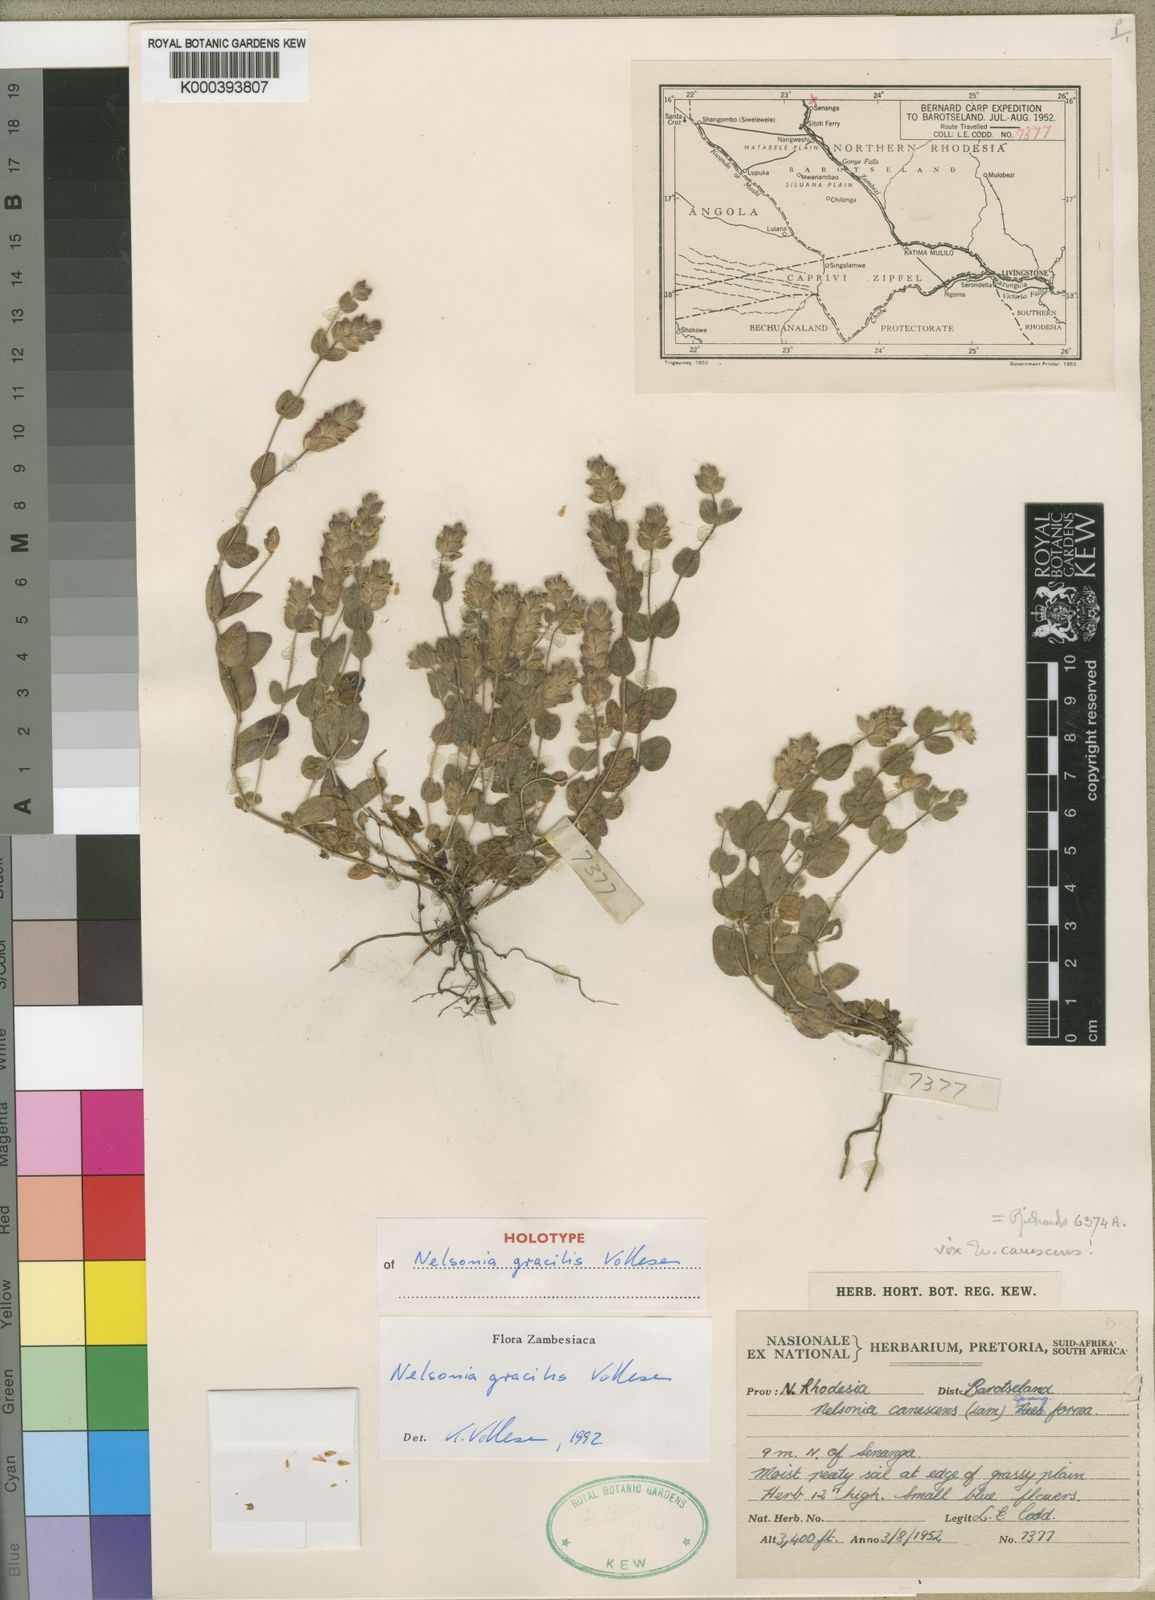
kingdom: Plantae
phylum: Tracheophyta
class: Magnoliopsida
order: Lamiales
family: Acanthaceae
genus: Nelsonia
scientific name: Nelsonia gracilis
